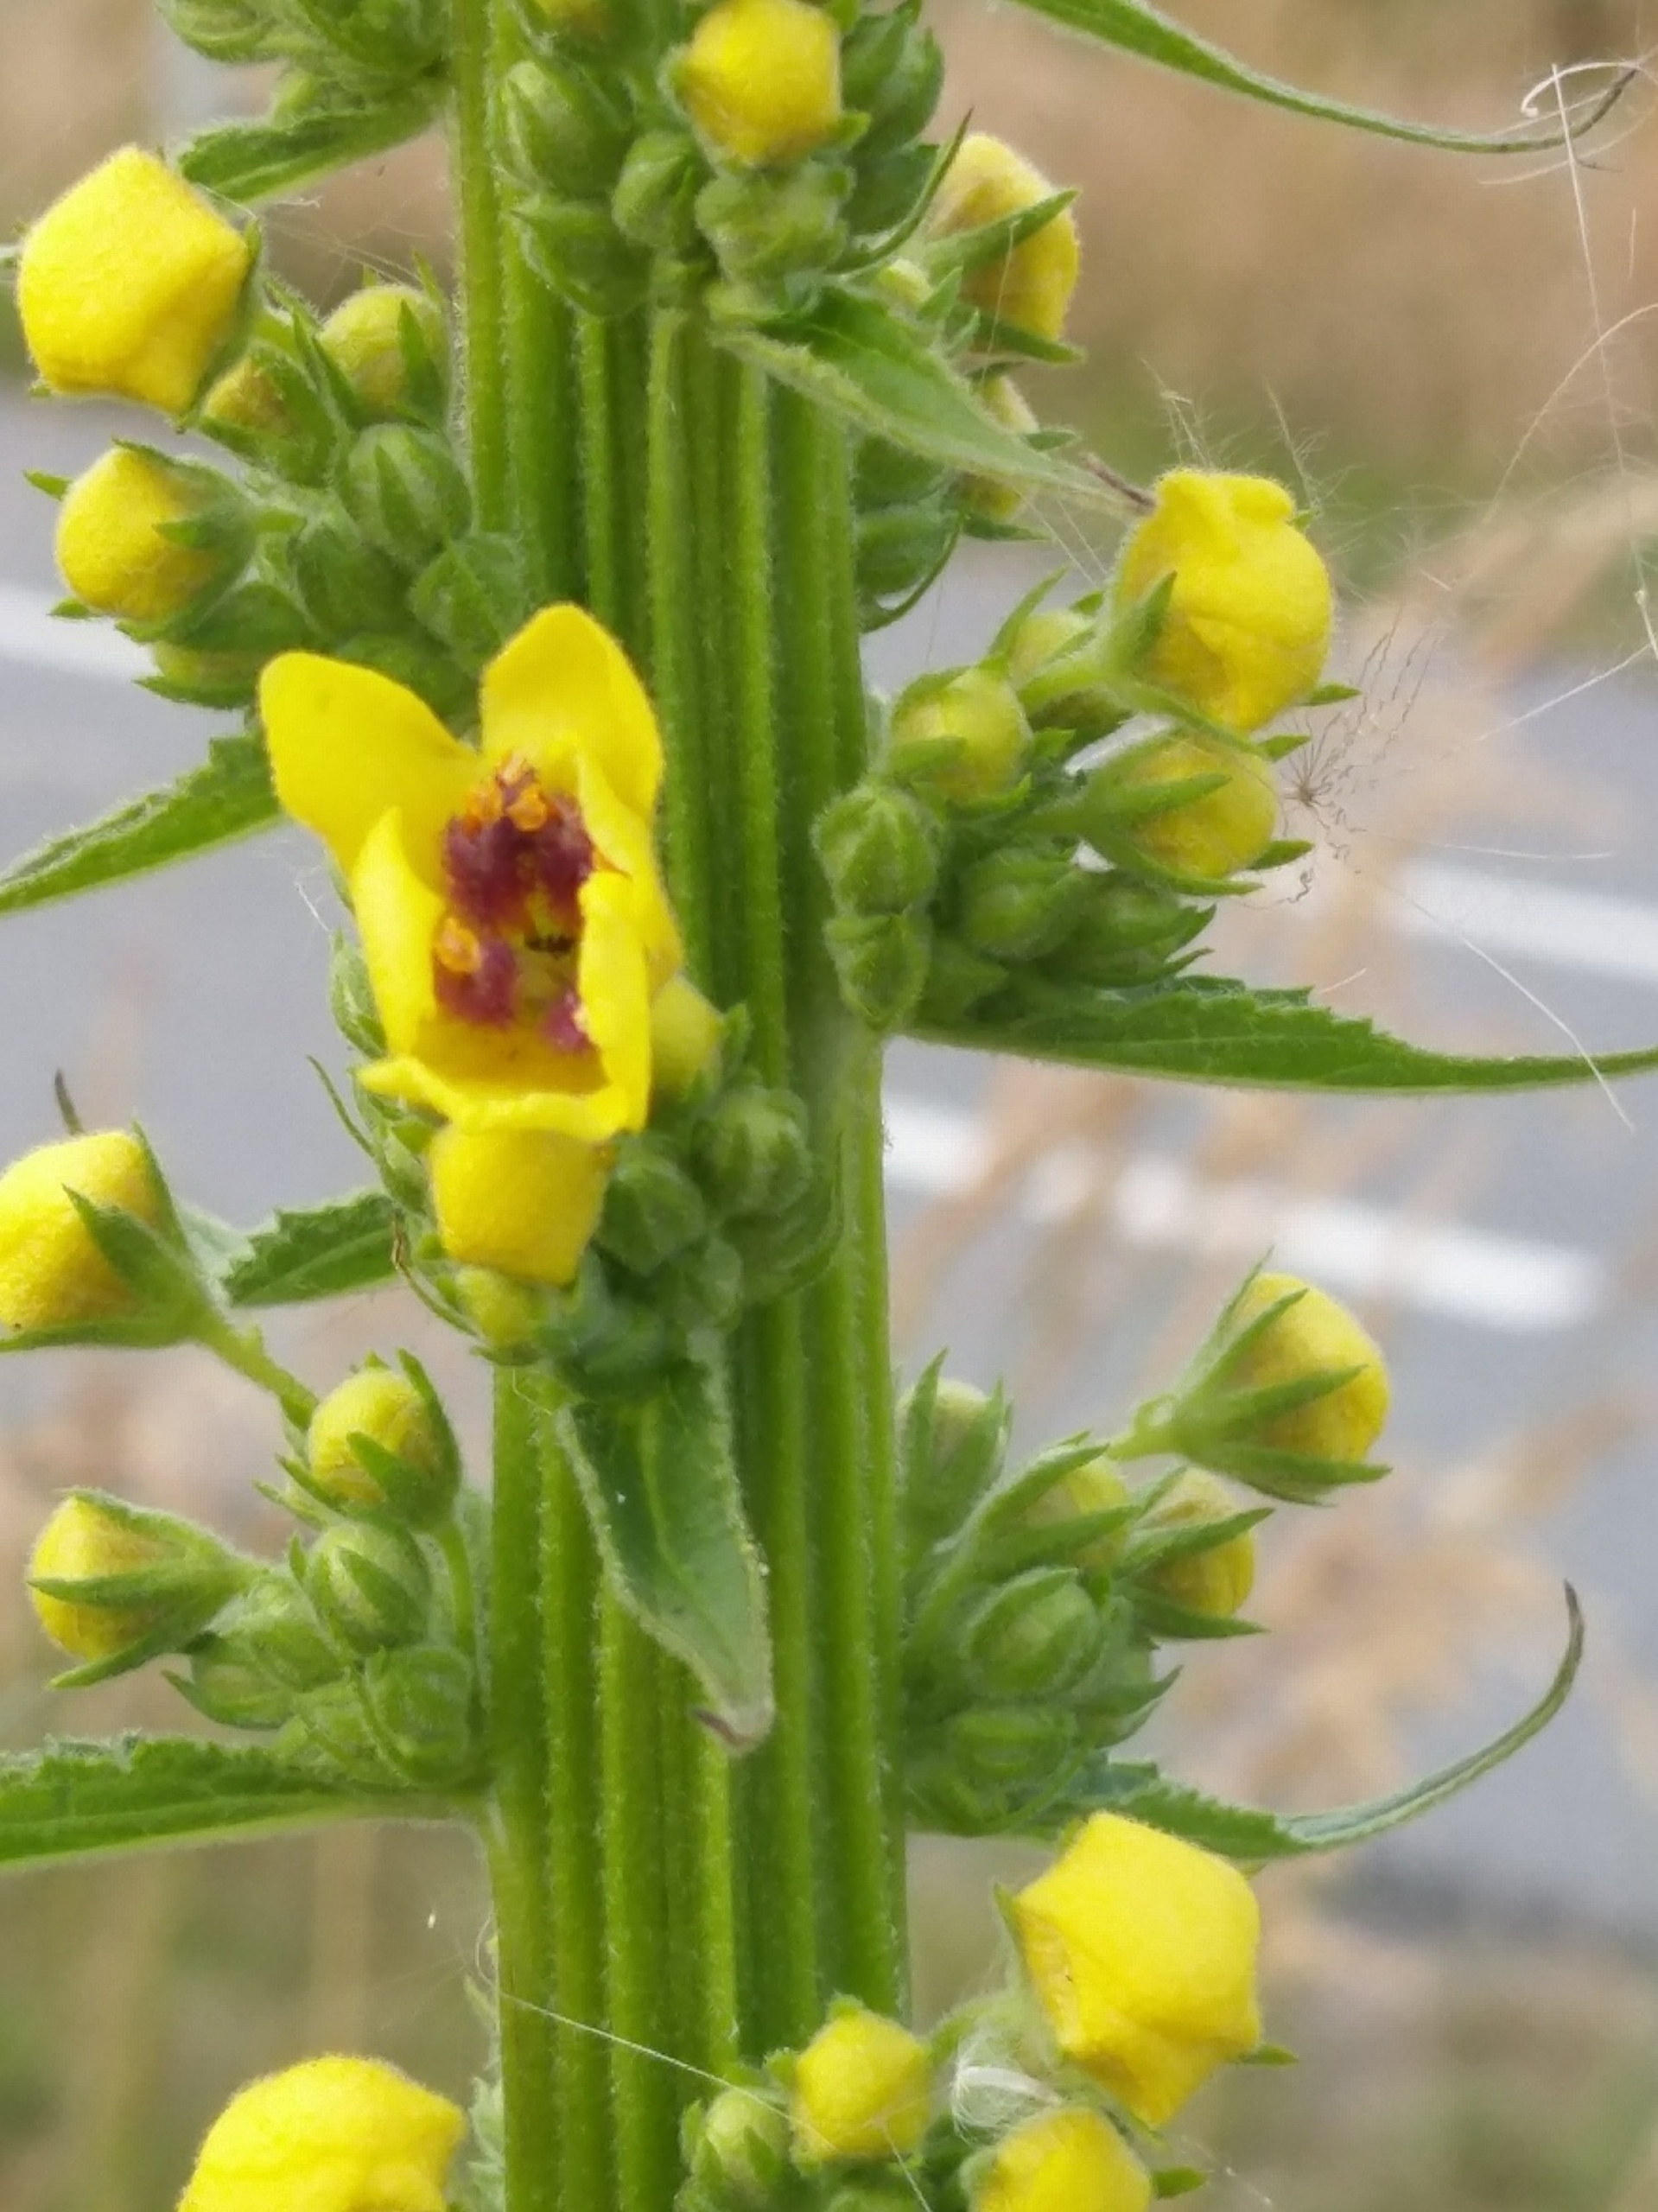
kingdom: Plantae
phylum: Tracheophyta
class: Magnoliopsida
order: Lamiales
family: Scrophulariaceae
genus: Verbascum
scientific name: Verbascum nigrum
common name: Mørk kongelys
